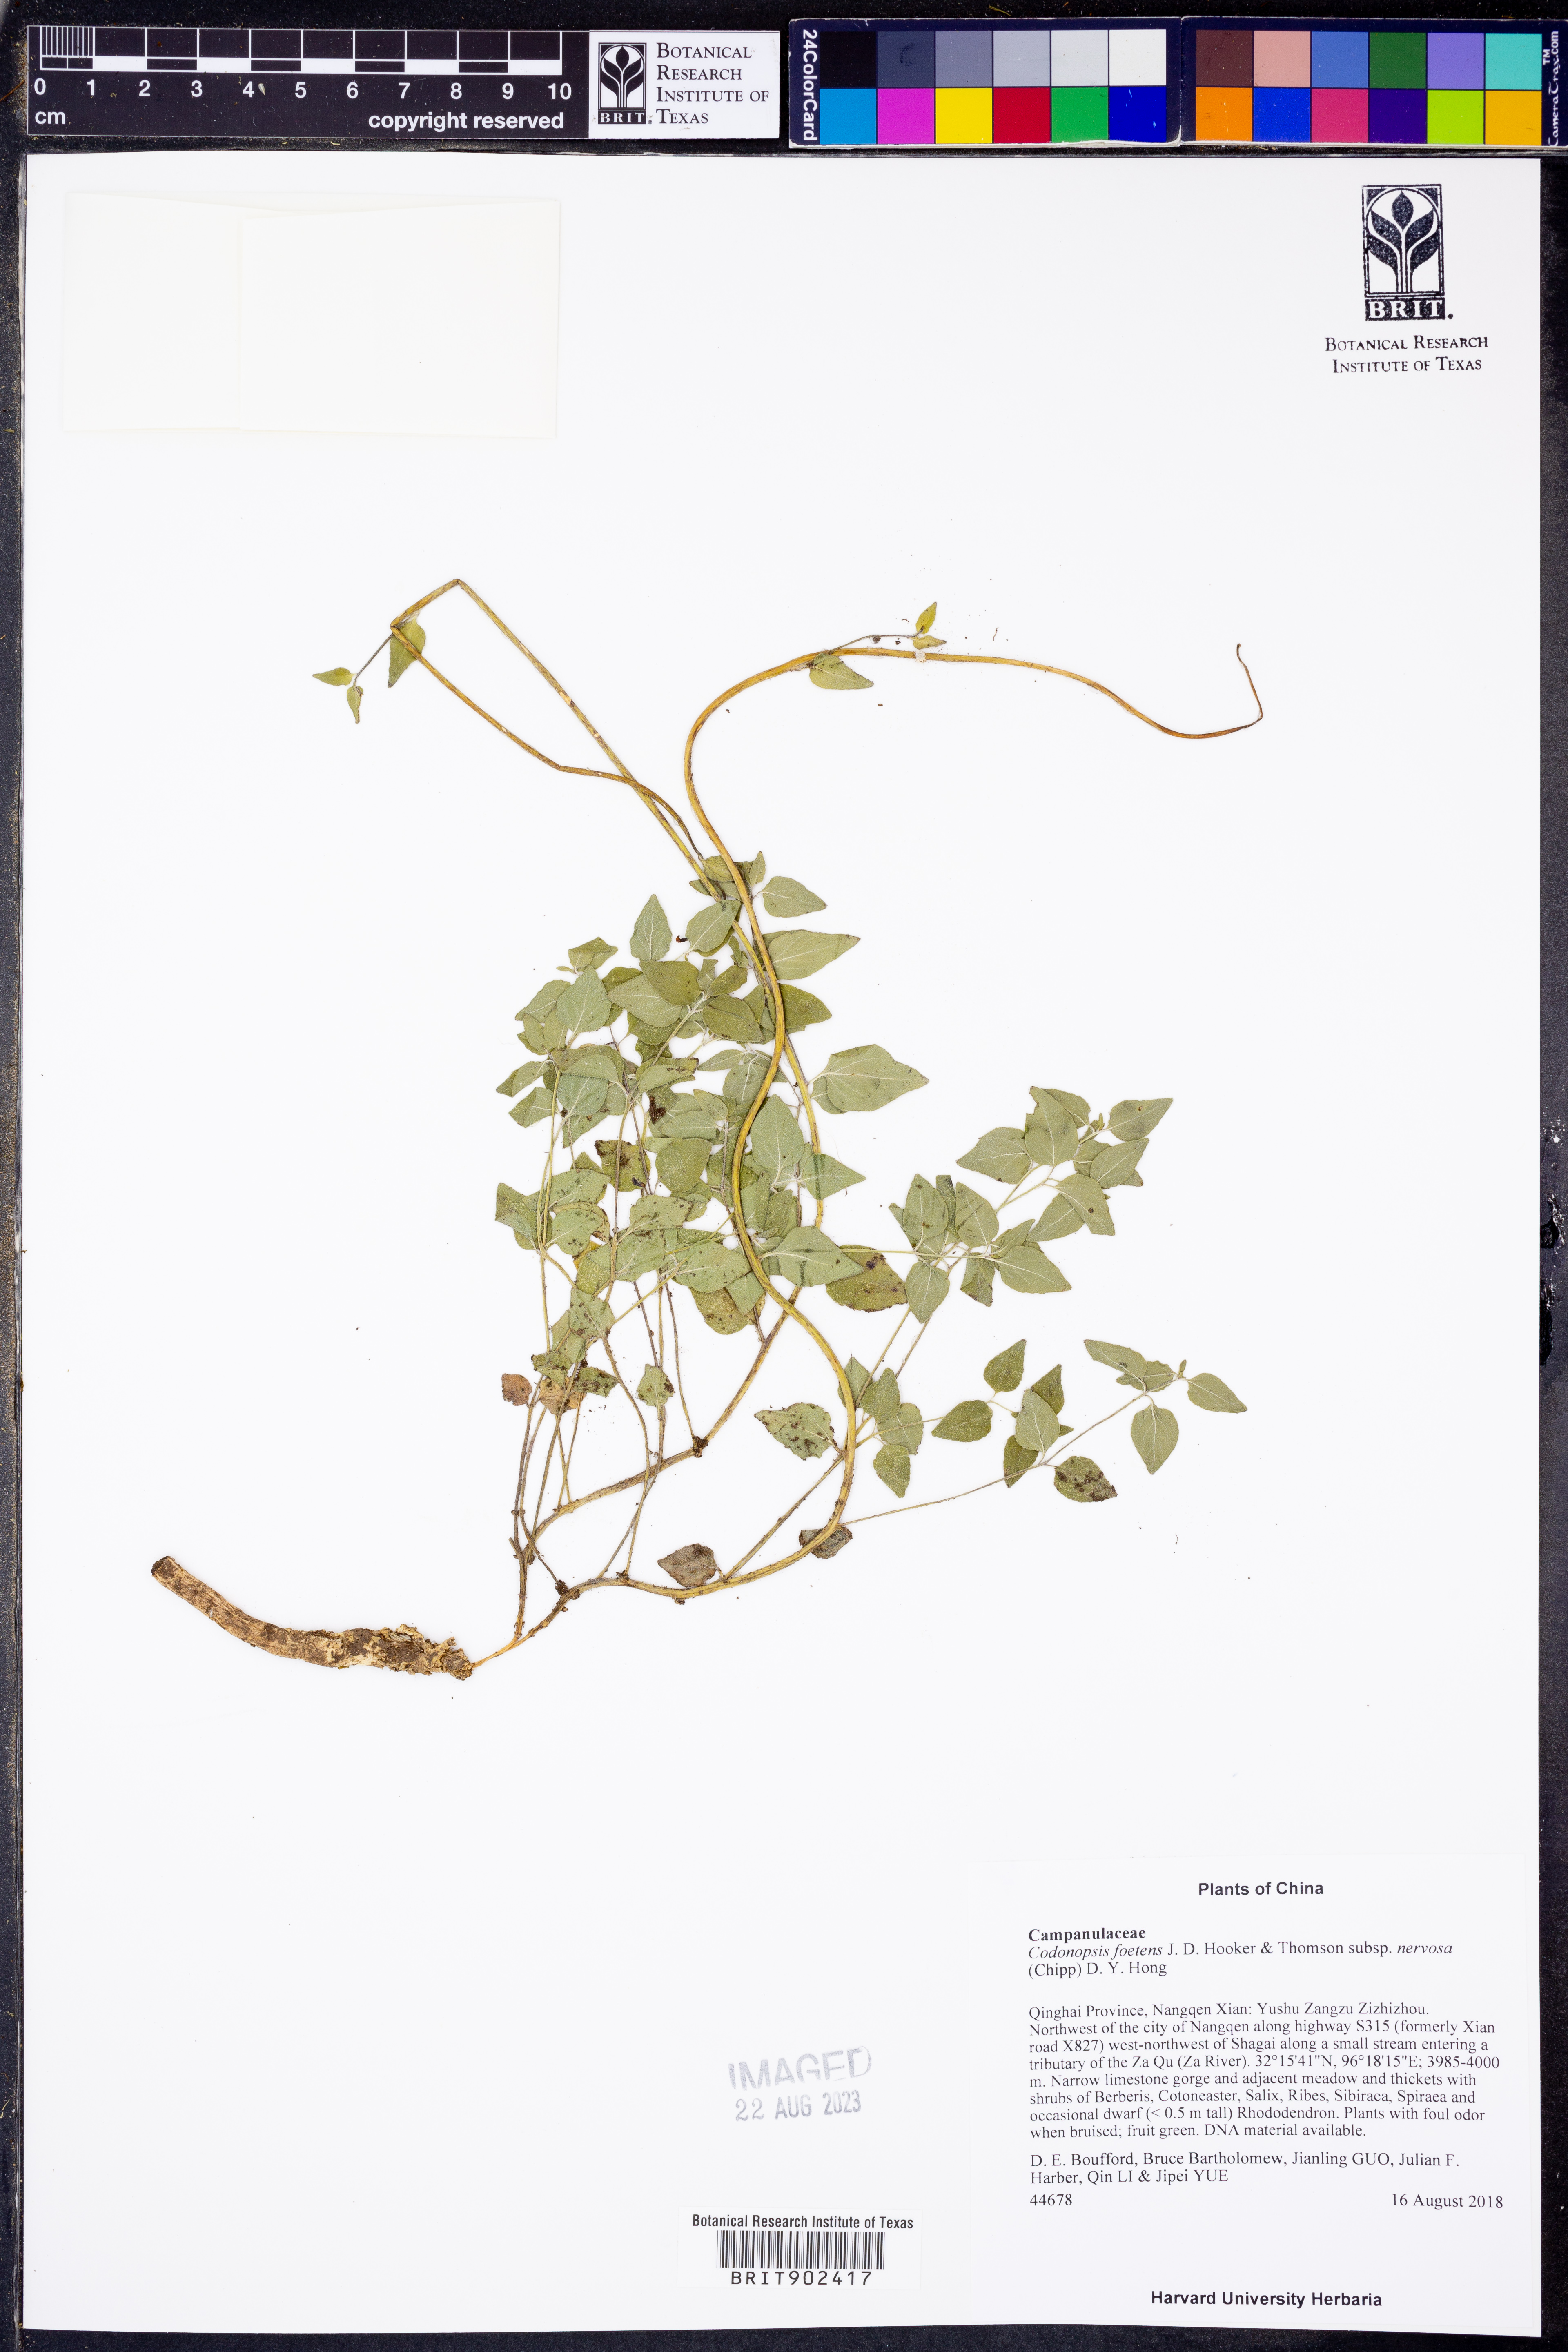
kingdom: Plantae
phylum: Tracheophyta
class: Magnoliopsida
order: Asterales
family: Campanulaceae
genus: Codonopsis
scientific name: Codonopsis
